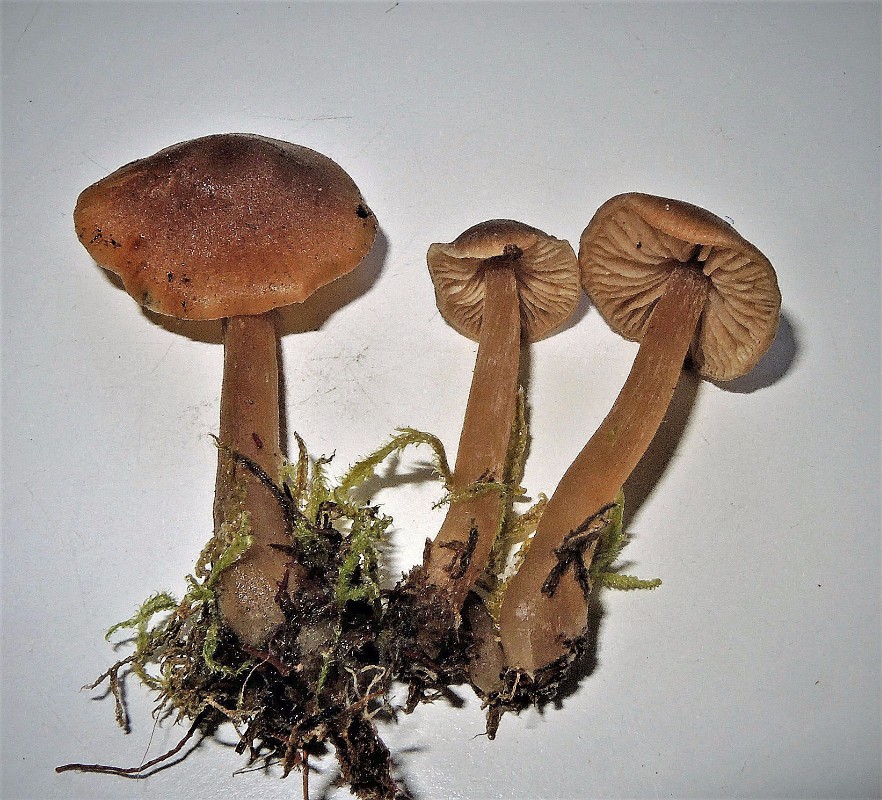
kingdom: Fungi
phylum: Basidiomycota
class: Agaricomycetes
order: Agaricales
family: Entolomataceae
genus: Entoloma
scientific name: Entoloma cetratum
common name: voks-rødblad
